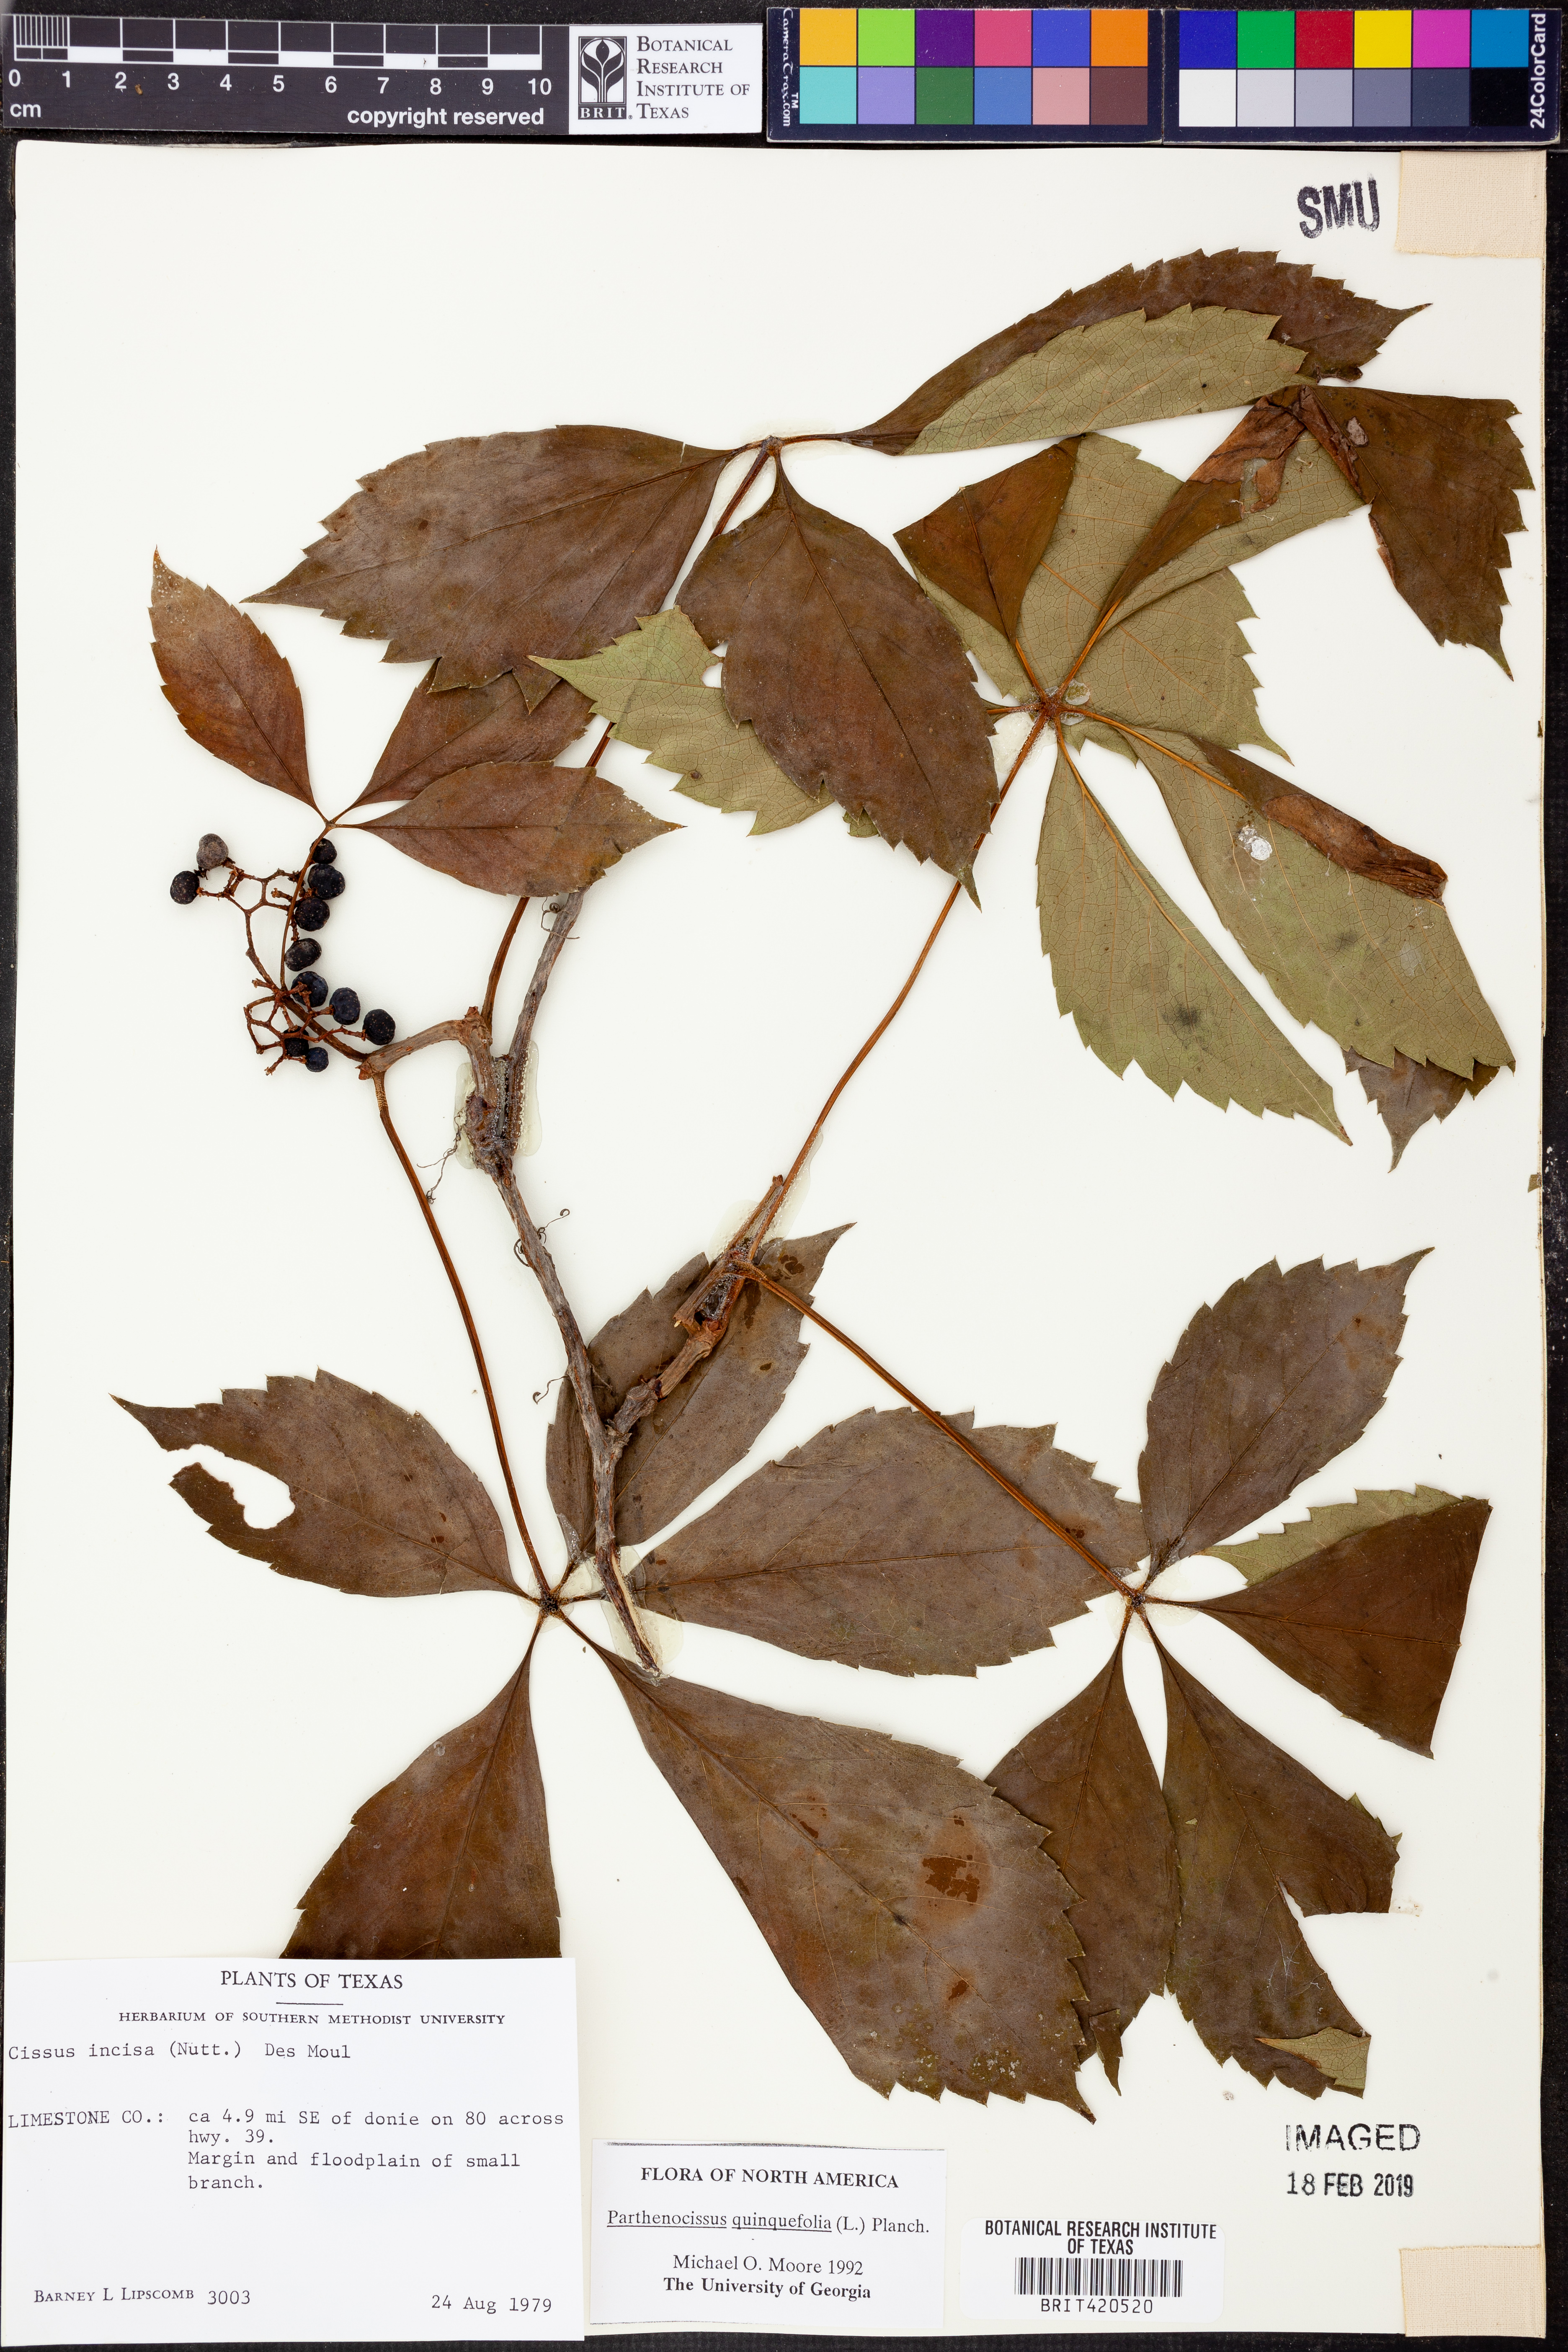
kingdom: Plantae
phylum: Tracheophyta
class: Magnoliopsida
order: Vitales
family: Vitaceae
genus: Parthenocissus
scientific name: Parthenocissus quinquefolia
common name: Virginia-creeper
